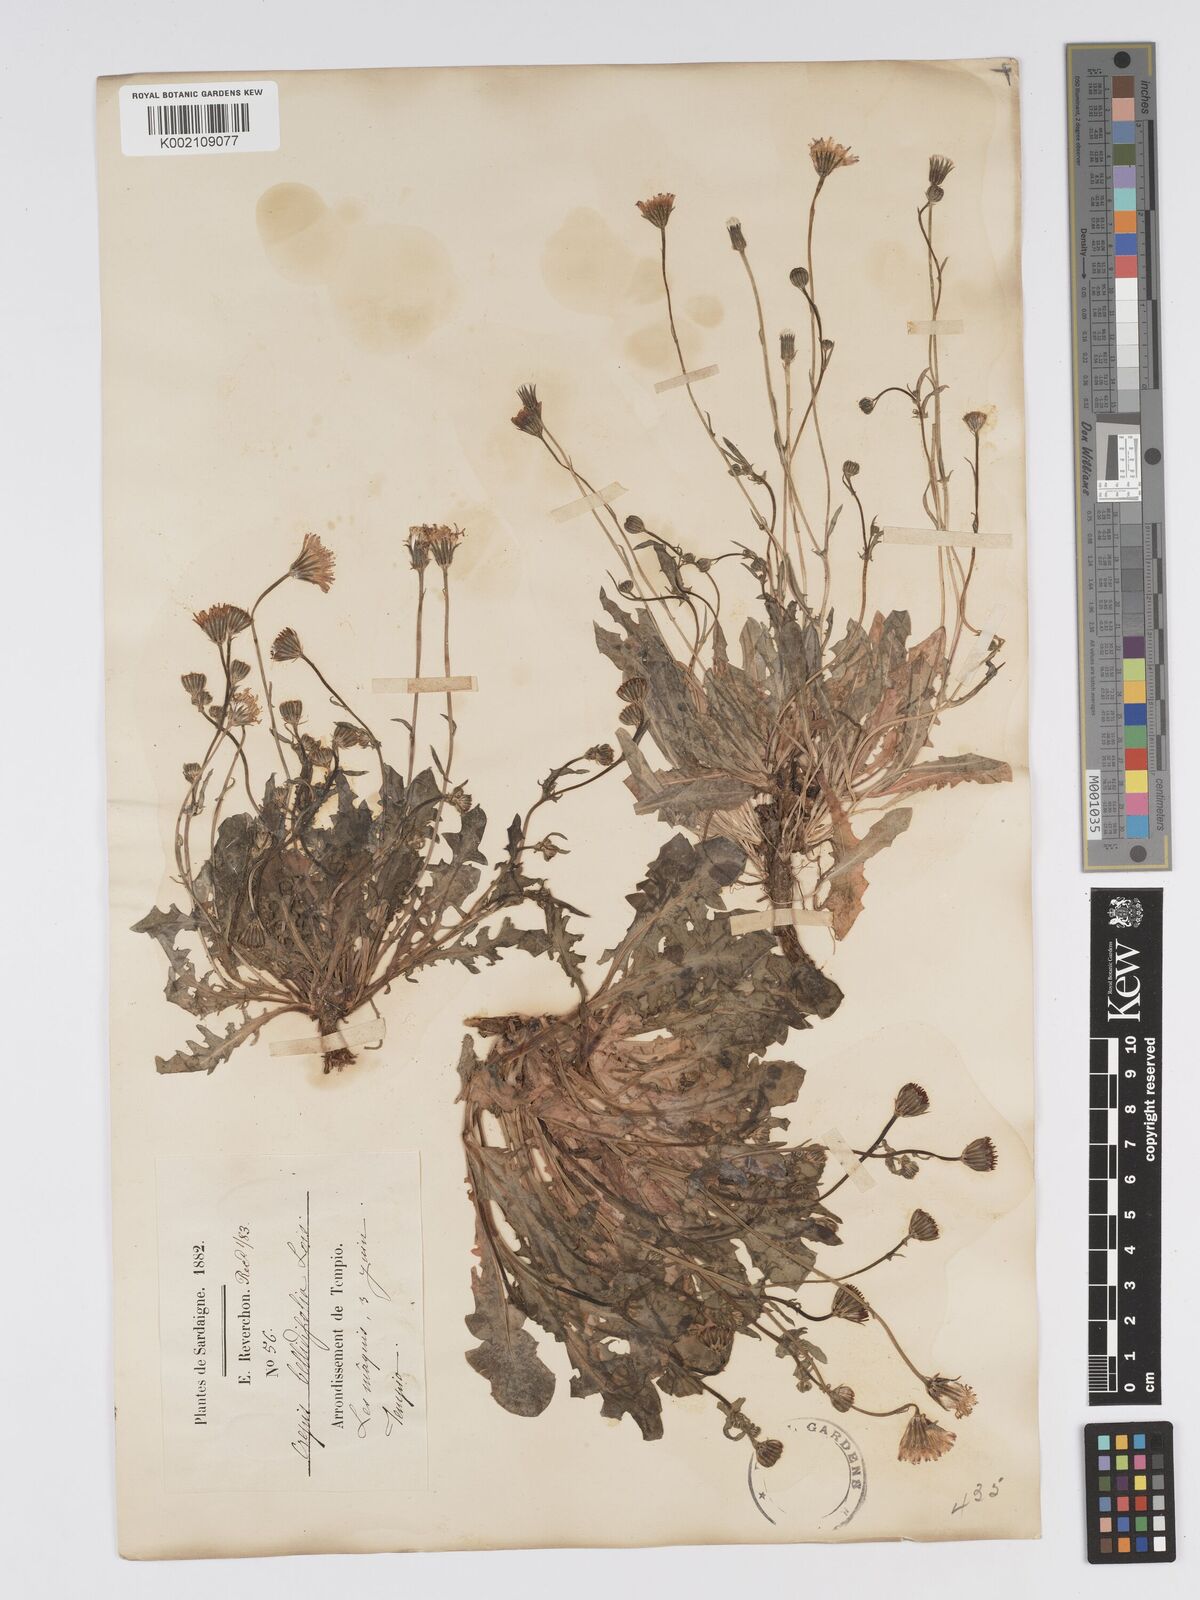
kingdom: Plantae
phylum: Tracheophyta
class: Magnoliopsida
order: Asterales
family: Asteraceae
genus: Crepis
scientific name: Crepis bellidifolia
